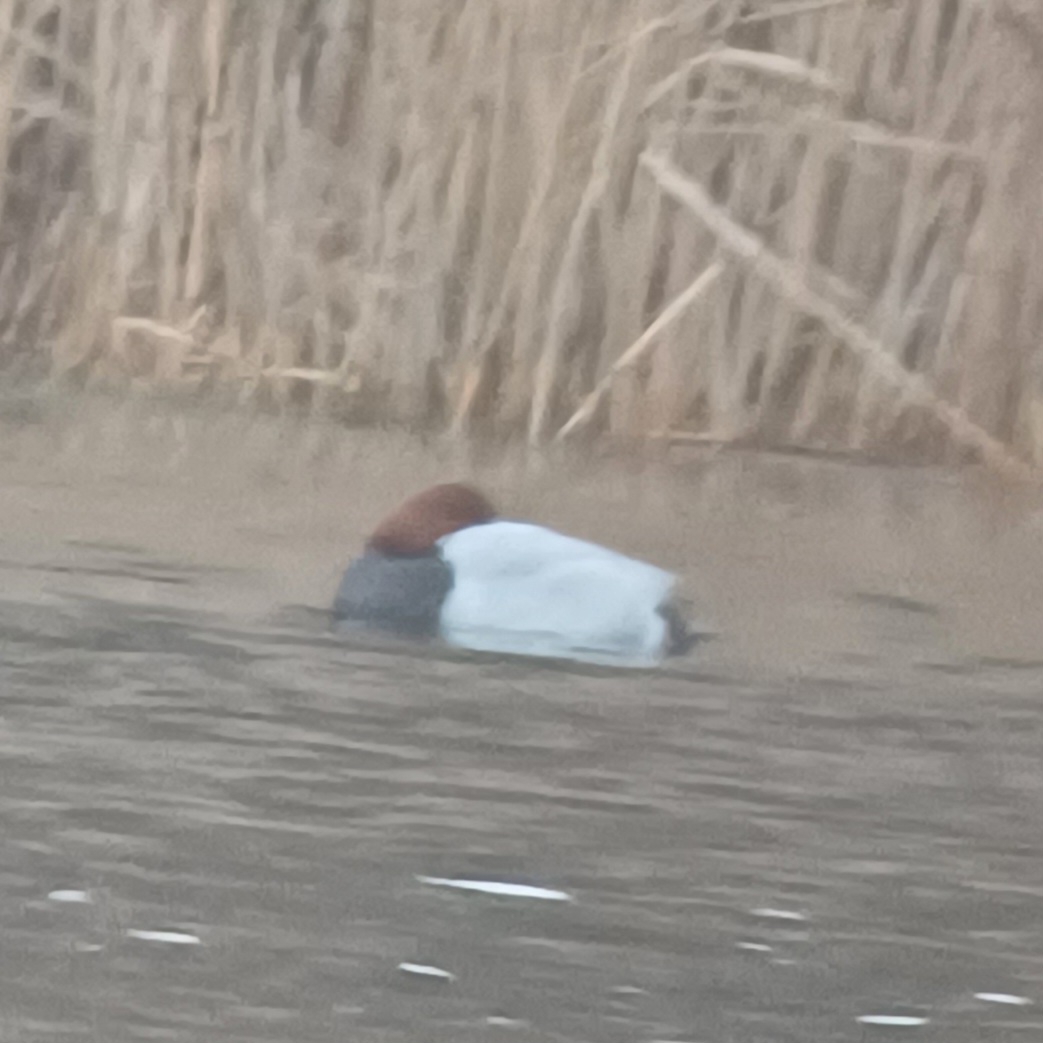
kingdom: Animalia
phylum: Chordata
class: Aves
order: Anseriformes
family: Anatidae
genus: Aythya
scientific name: Aythya ferina
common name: Taffeland
